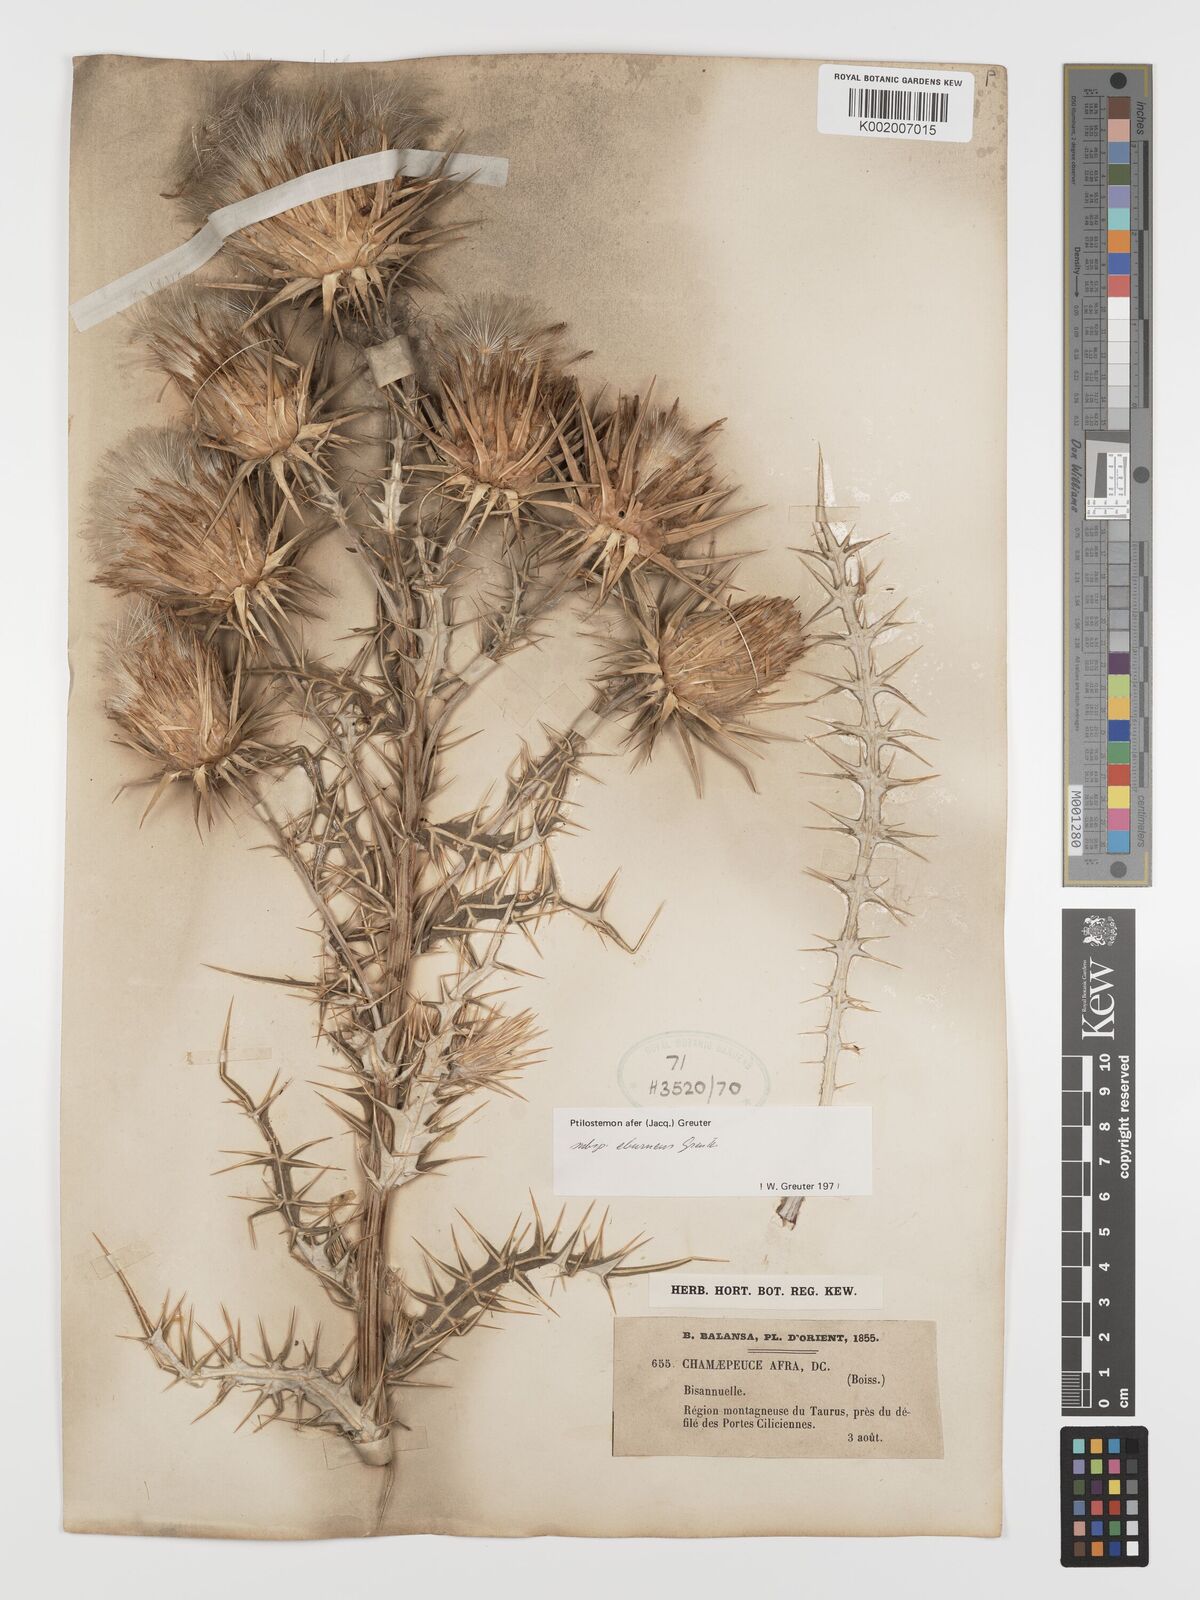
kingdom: Plantae
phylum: Tracheophyta
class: Magnoliopsida
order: Asterales
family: Asteraceae
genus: Ptilostemon
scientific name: Ptilostemon afer
